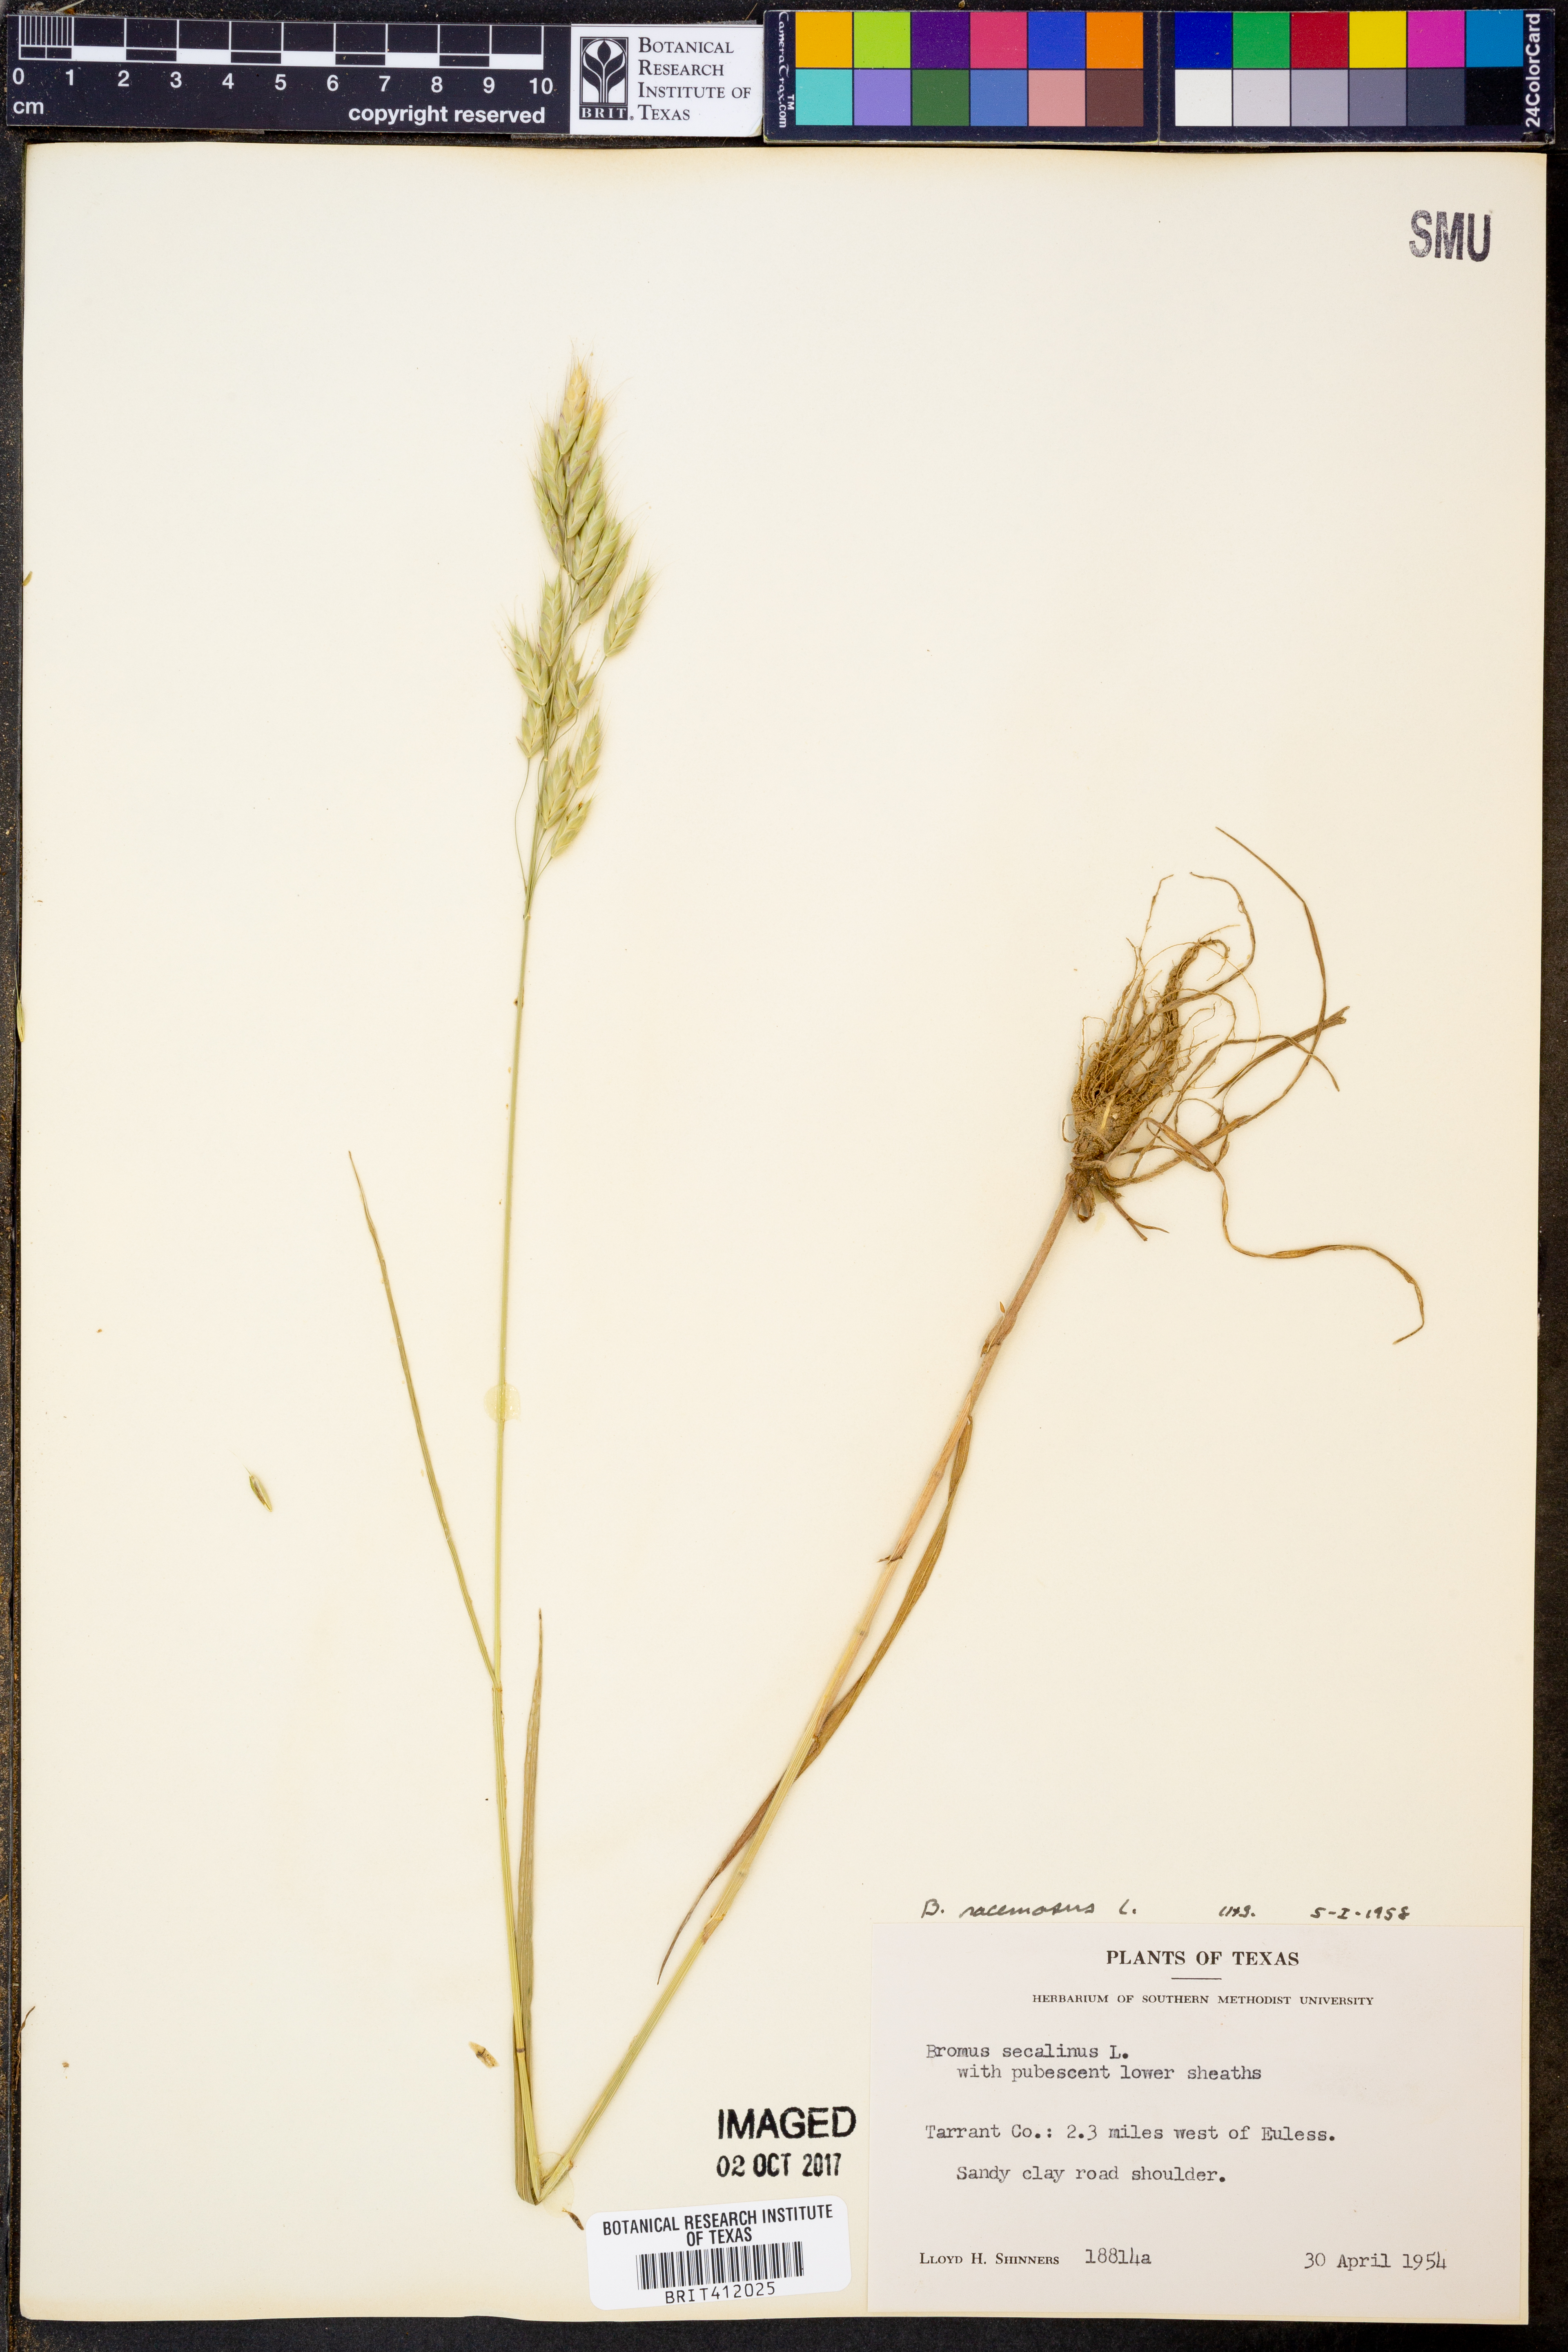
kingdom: Plantae
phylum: Tracheophyta
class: Liliopsida
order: Poales
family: Poaceae
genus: Bromus
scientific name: Bromus racemosus
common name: Bald brome
